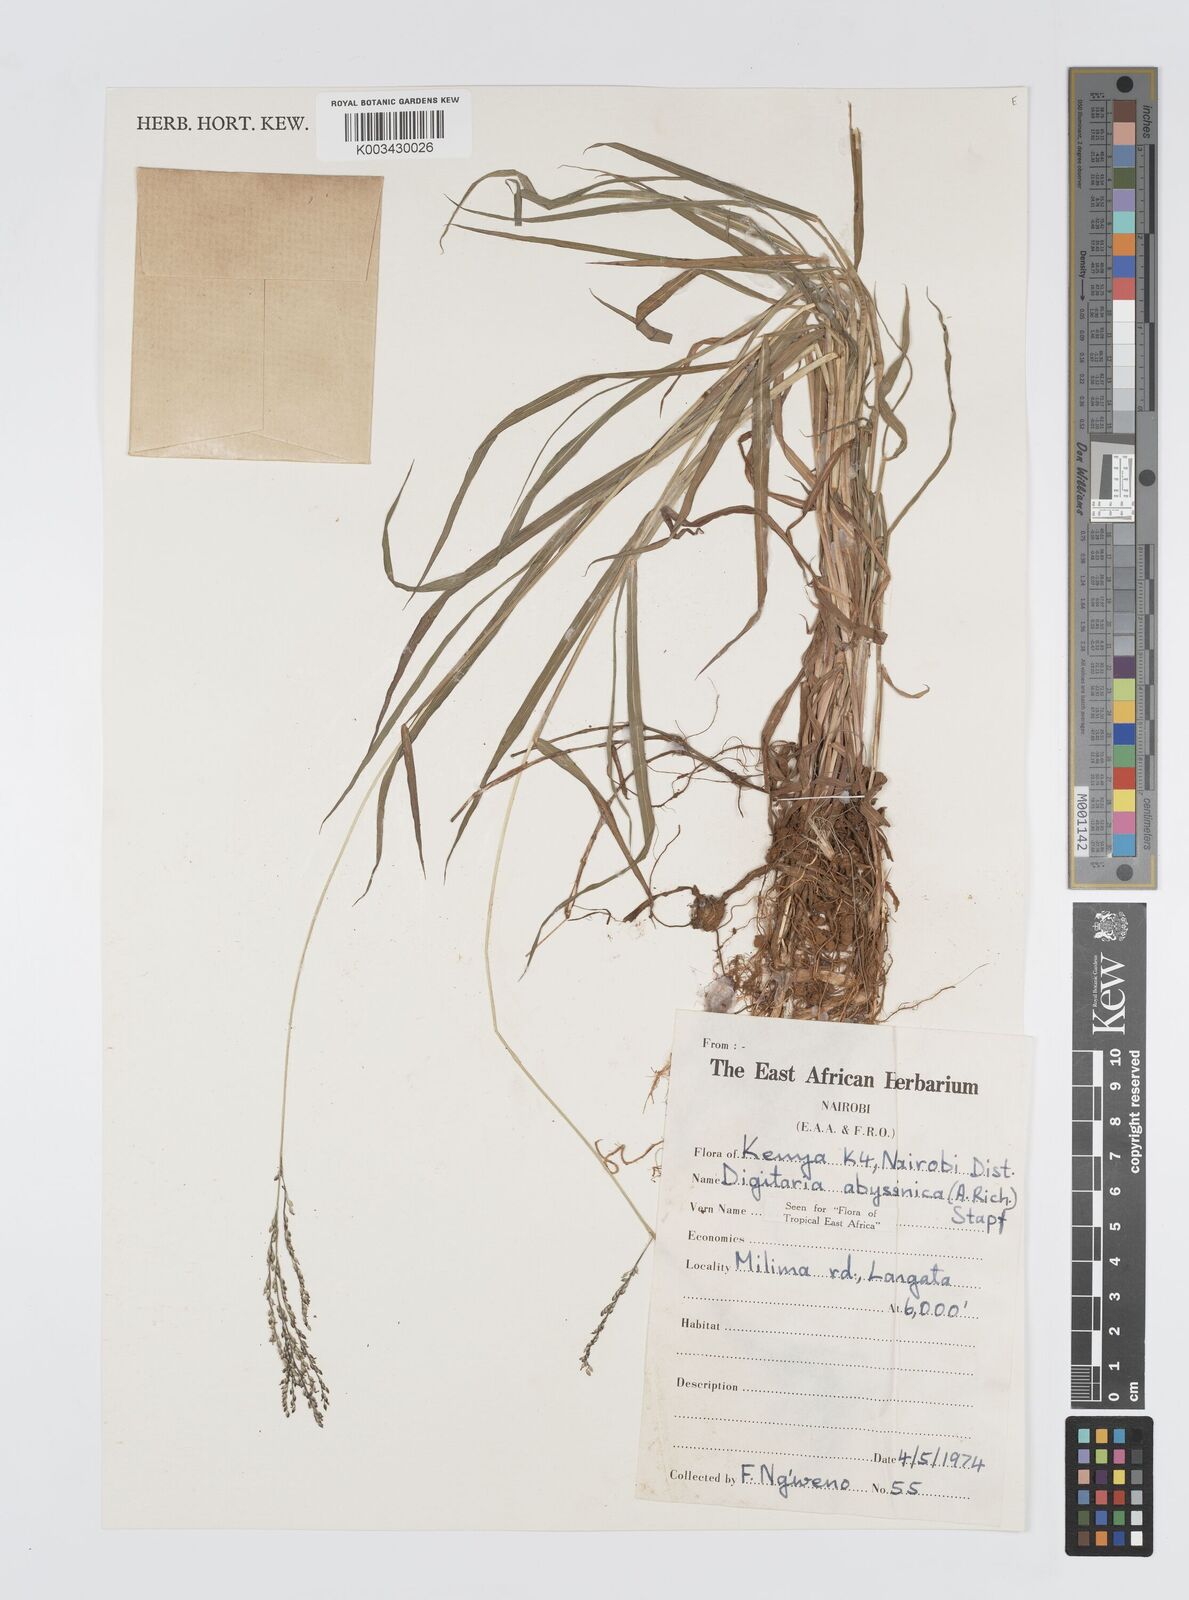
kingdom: Plantae
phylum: Tracheophyta
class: Liliopsida
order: Poales
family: Poaceae
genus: Digitaria
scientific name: Digitaria abyssinica
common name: African couchgrass
